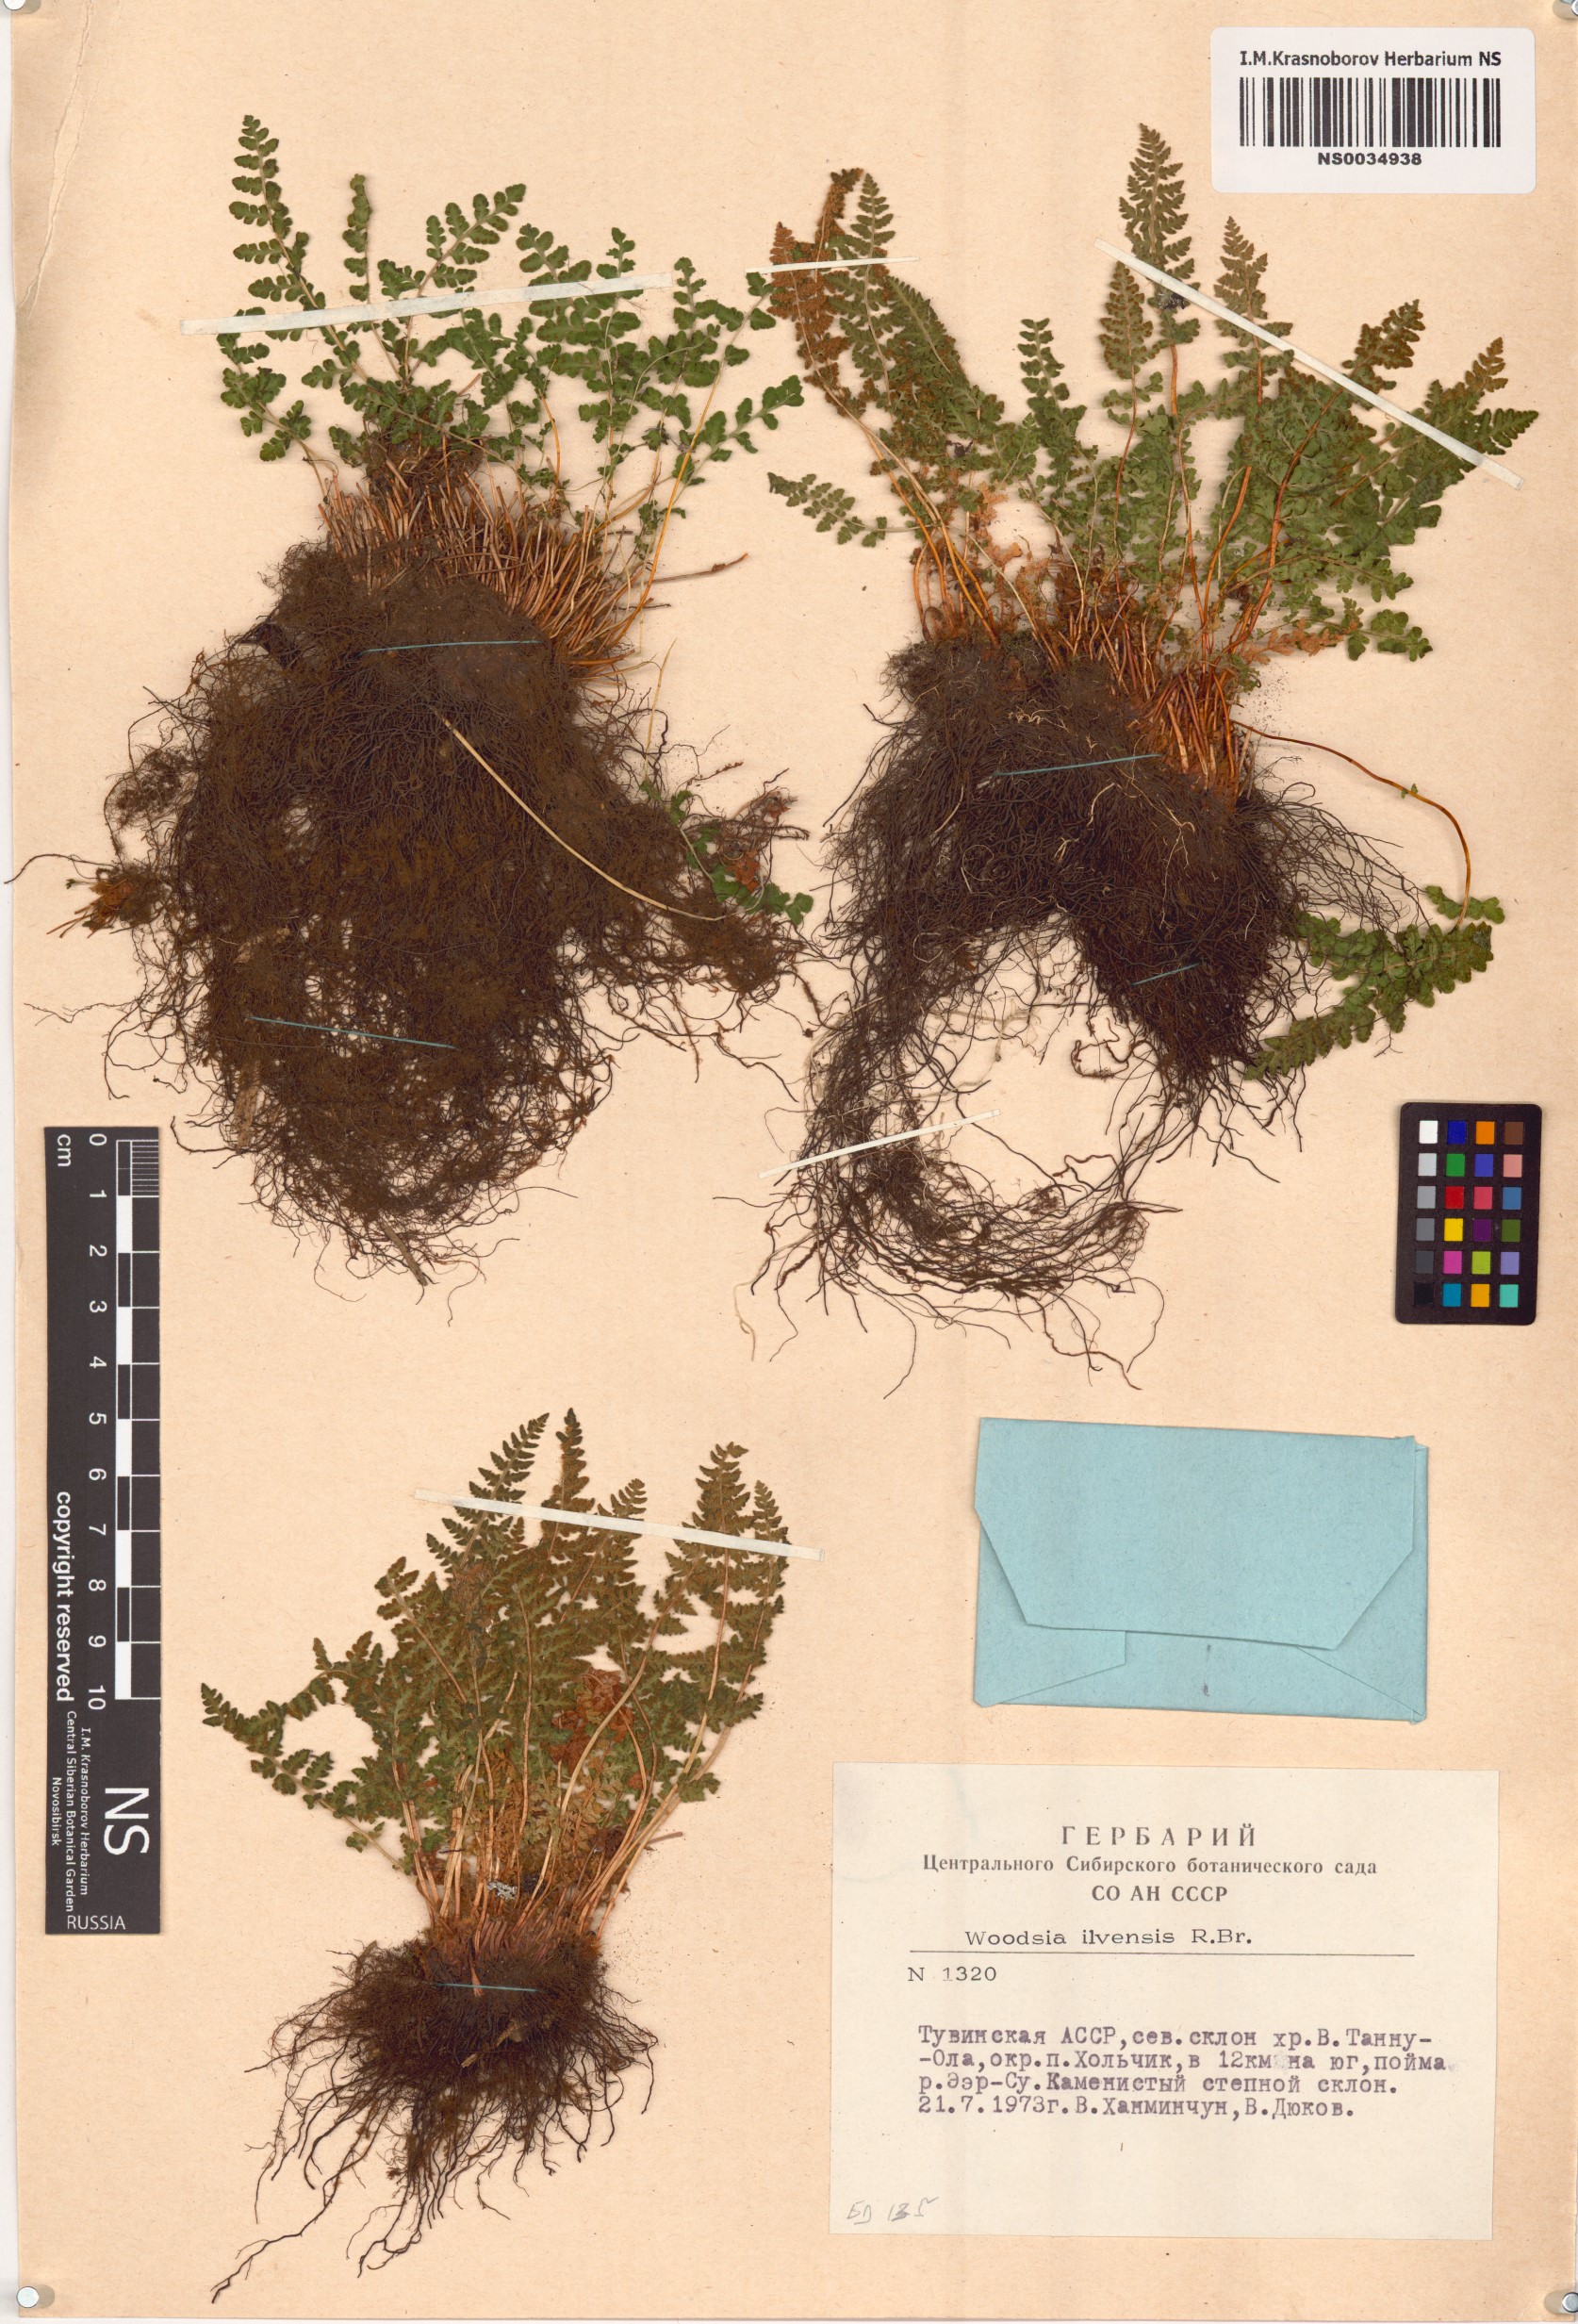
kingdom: Plantae
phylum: Tracheophyta
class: Polypodiopsida
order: Polypodiales
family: Woodsiaceae
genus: Woodsia
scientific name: Woodsia ilvensis
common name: Fragrant woodsia
